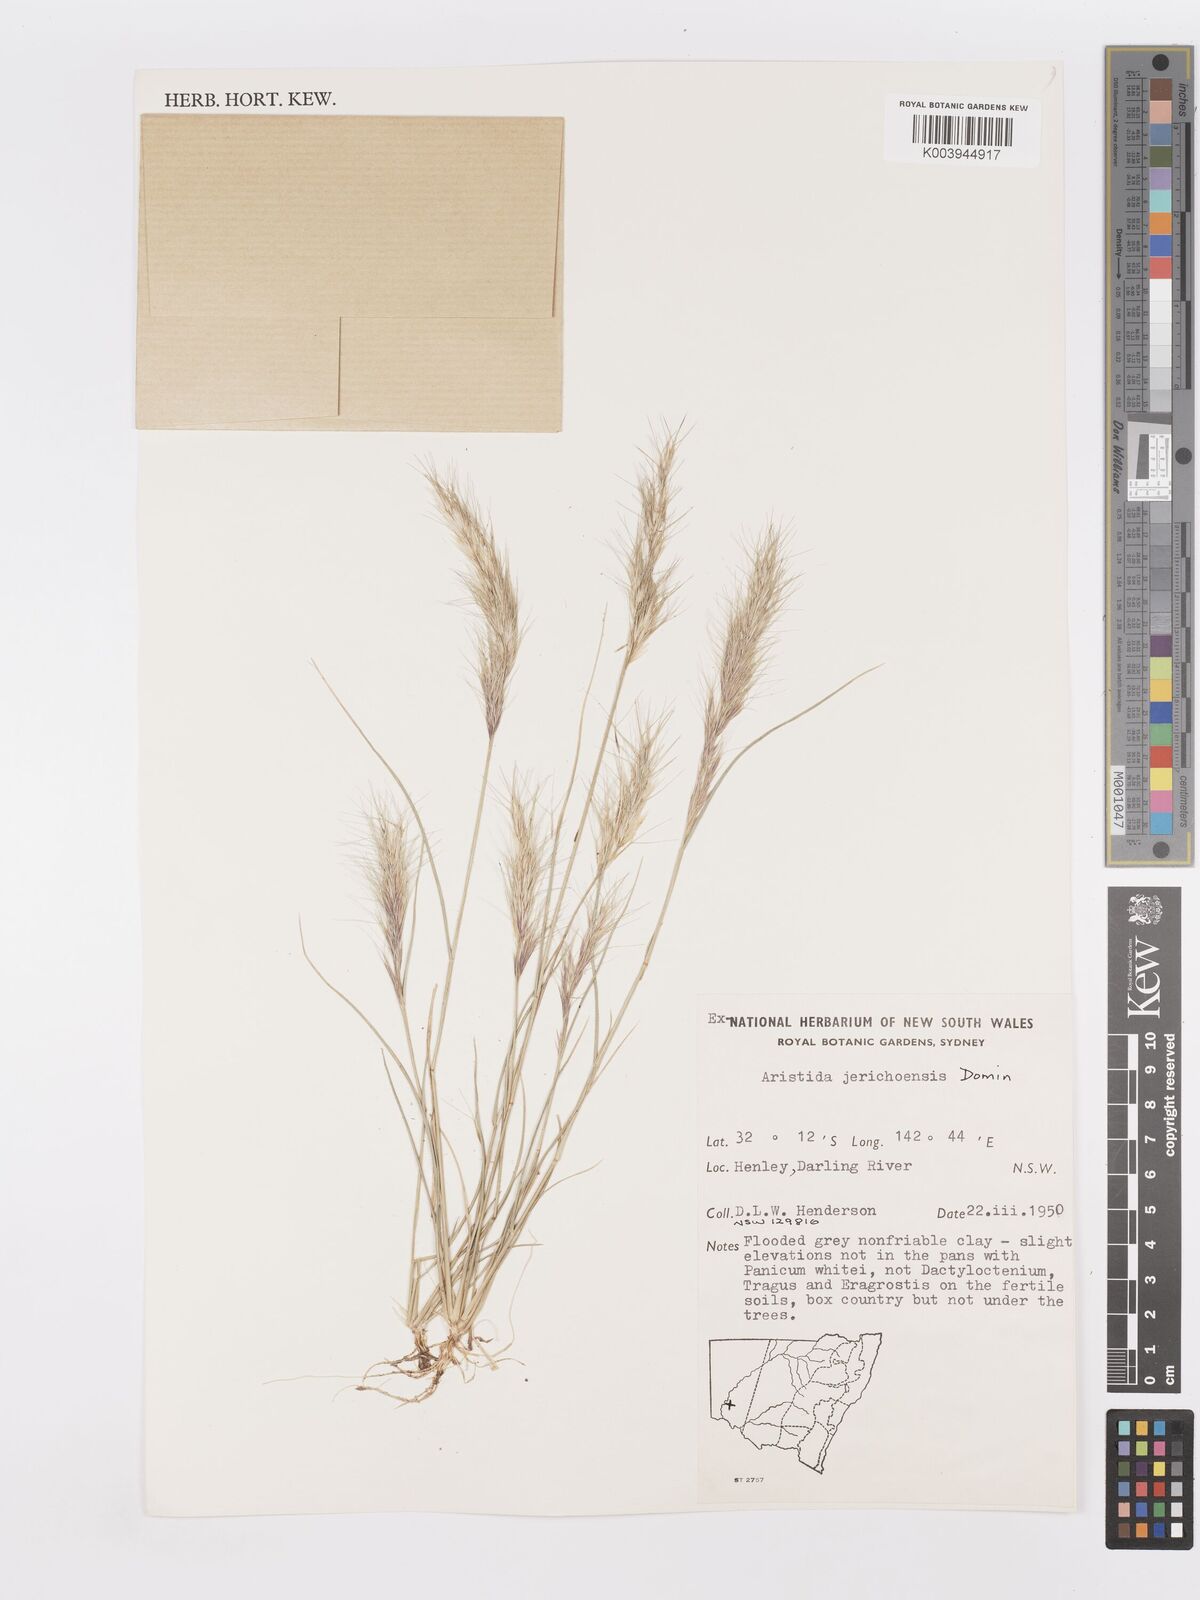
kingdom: Plantae
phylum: Tracheophyta
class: Liliopsida
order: Poales
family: Poaceae
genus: Aristida
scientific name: Aristida jerichoensis
